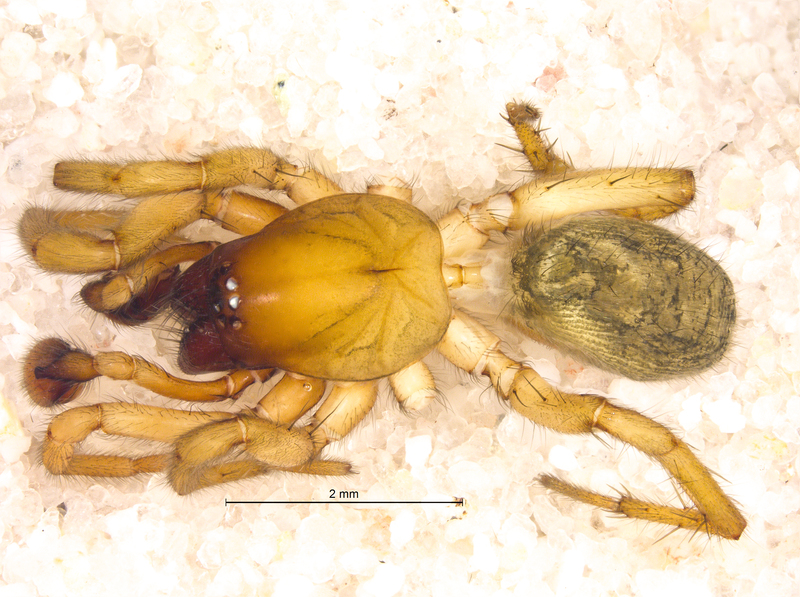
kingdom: Animalia
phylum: Arthropoda
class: Arachnida
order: Araneae
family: Gnaphosidae
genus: Haplodrassus
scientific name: Haplodrassus dalmatensis
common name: Heath grasper
